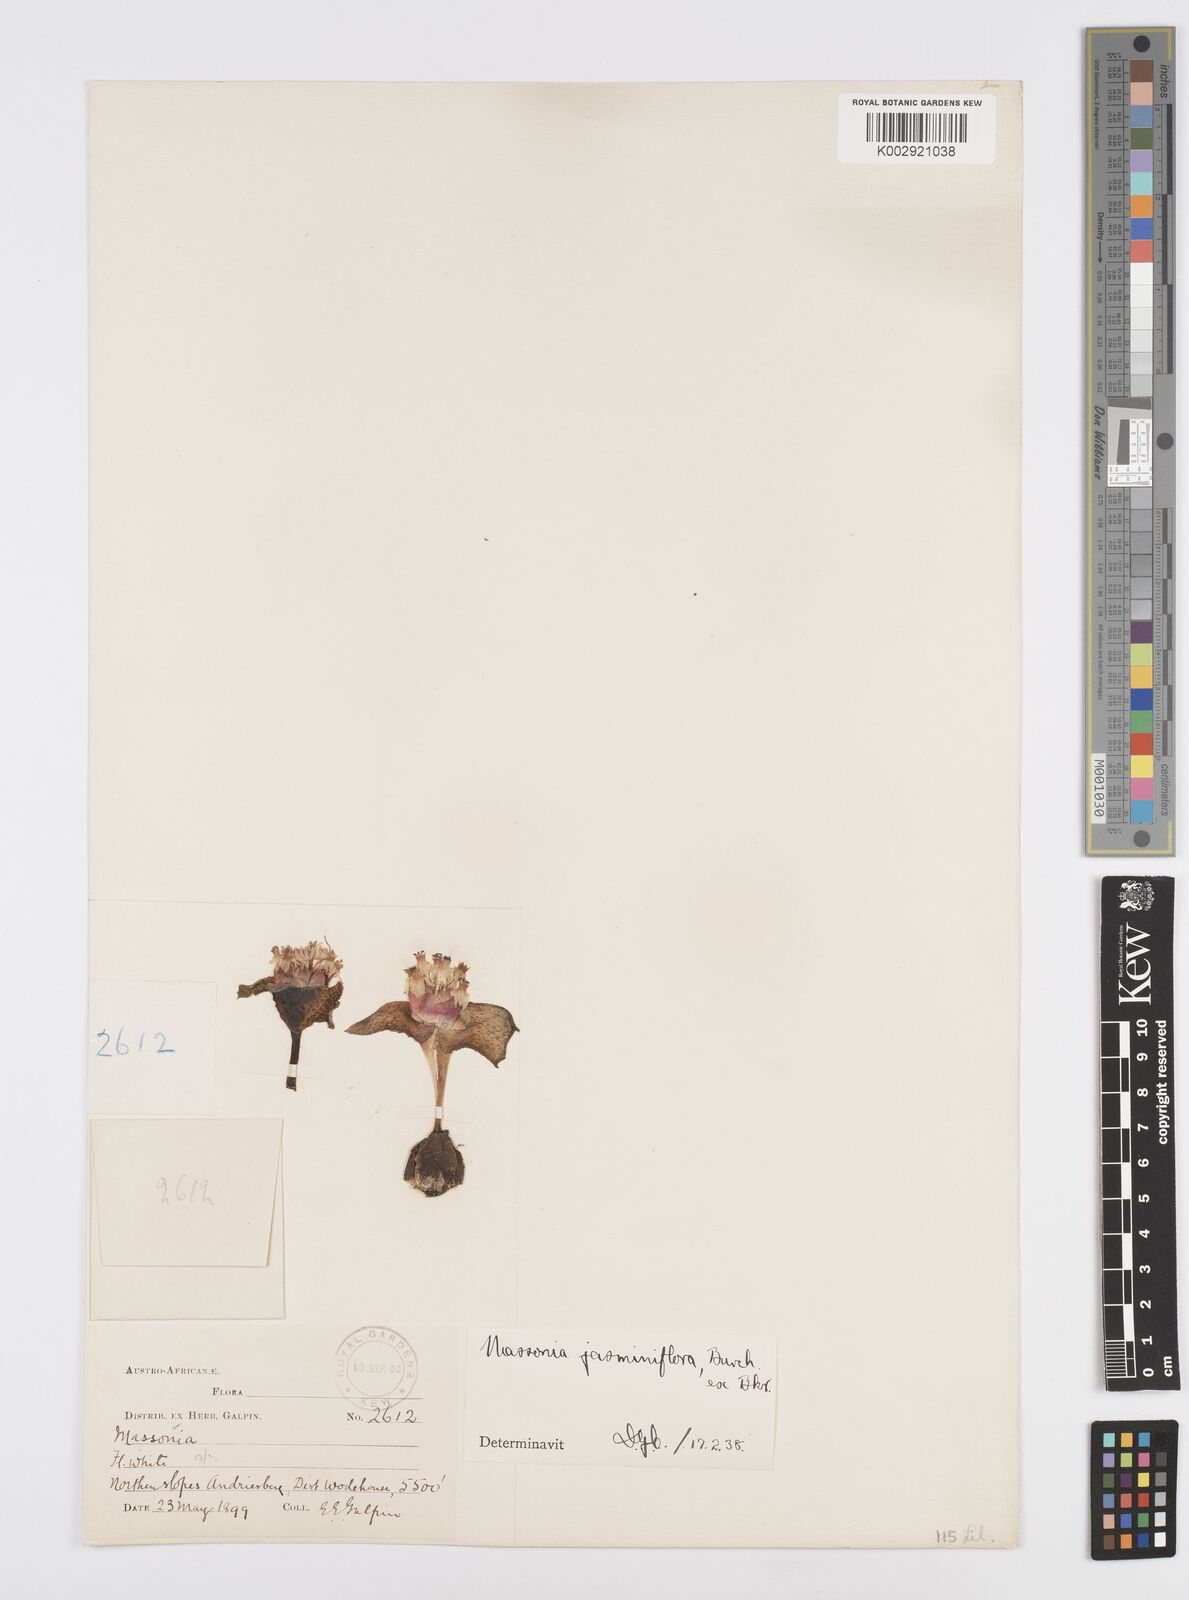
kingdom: Plantae
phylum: Tracheophyta
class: Liliopsida
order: Asparagales
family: Asparagaceae
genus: Massonia
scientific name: Massonia jasminiflora
